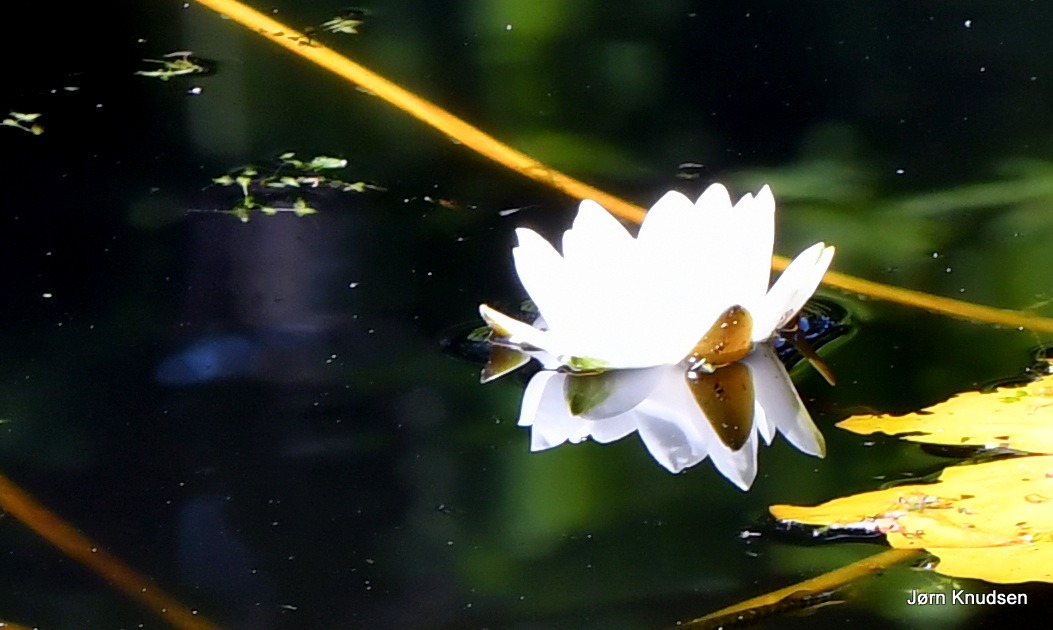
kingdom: Plantae
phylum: Tracheophyta
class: Magnoliopsida
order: Nymphaeales
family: Nymphaeaceae
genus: Nymphaea
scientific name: Nymphaea alba
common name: Hvid åkande
